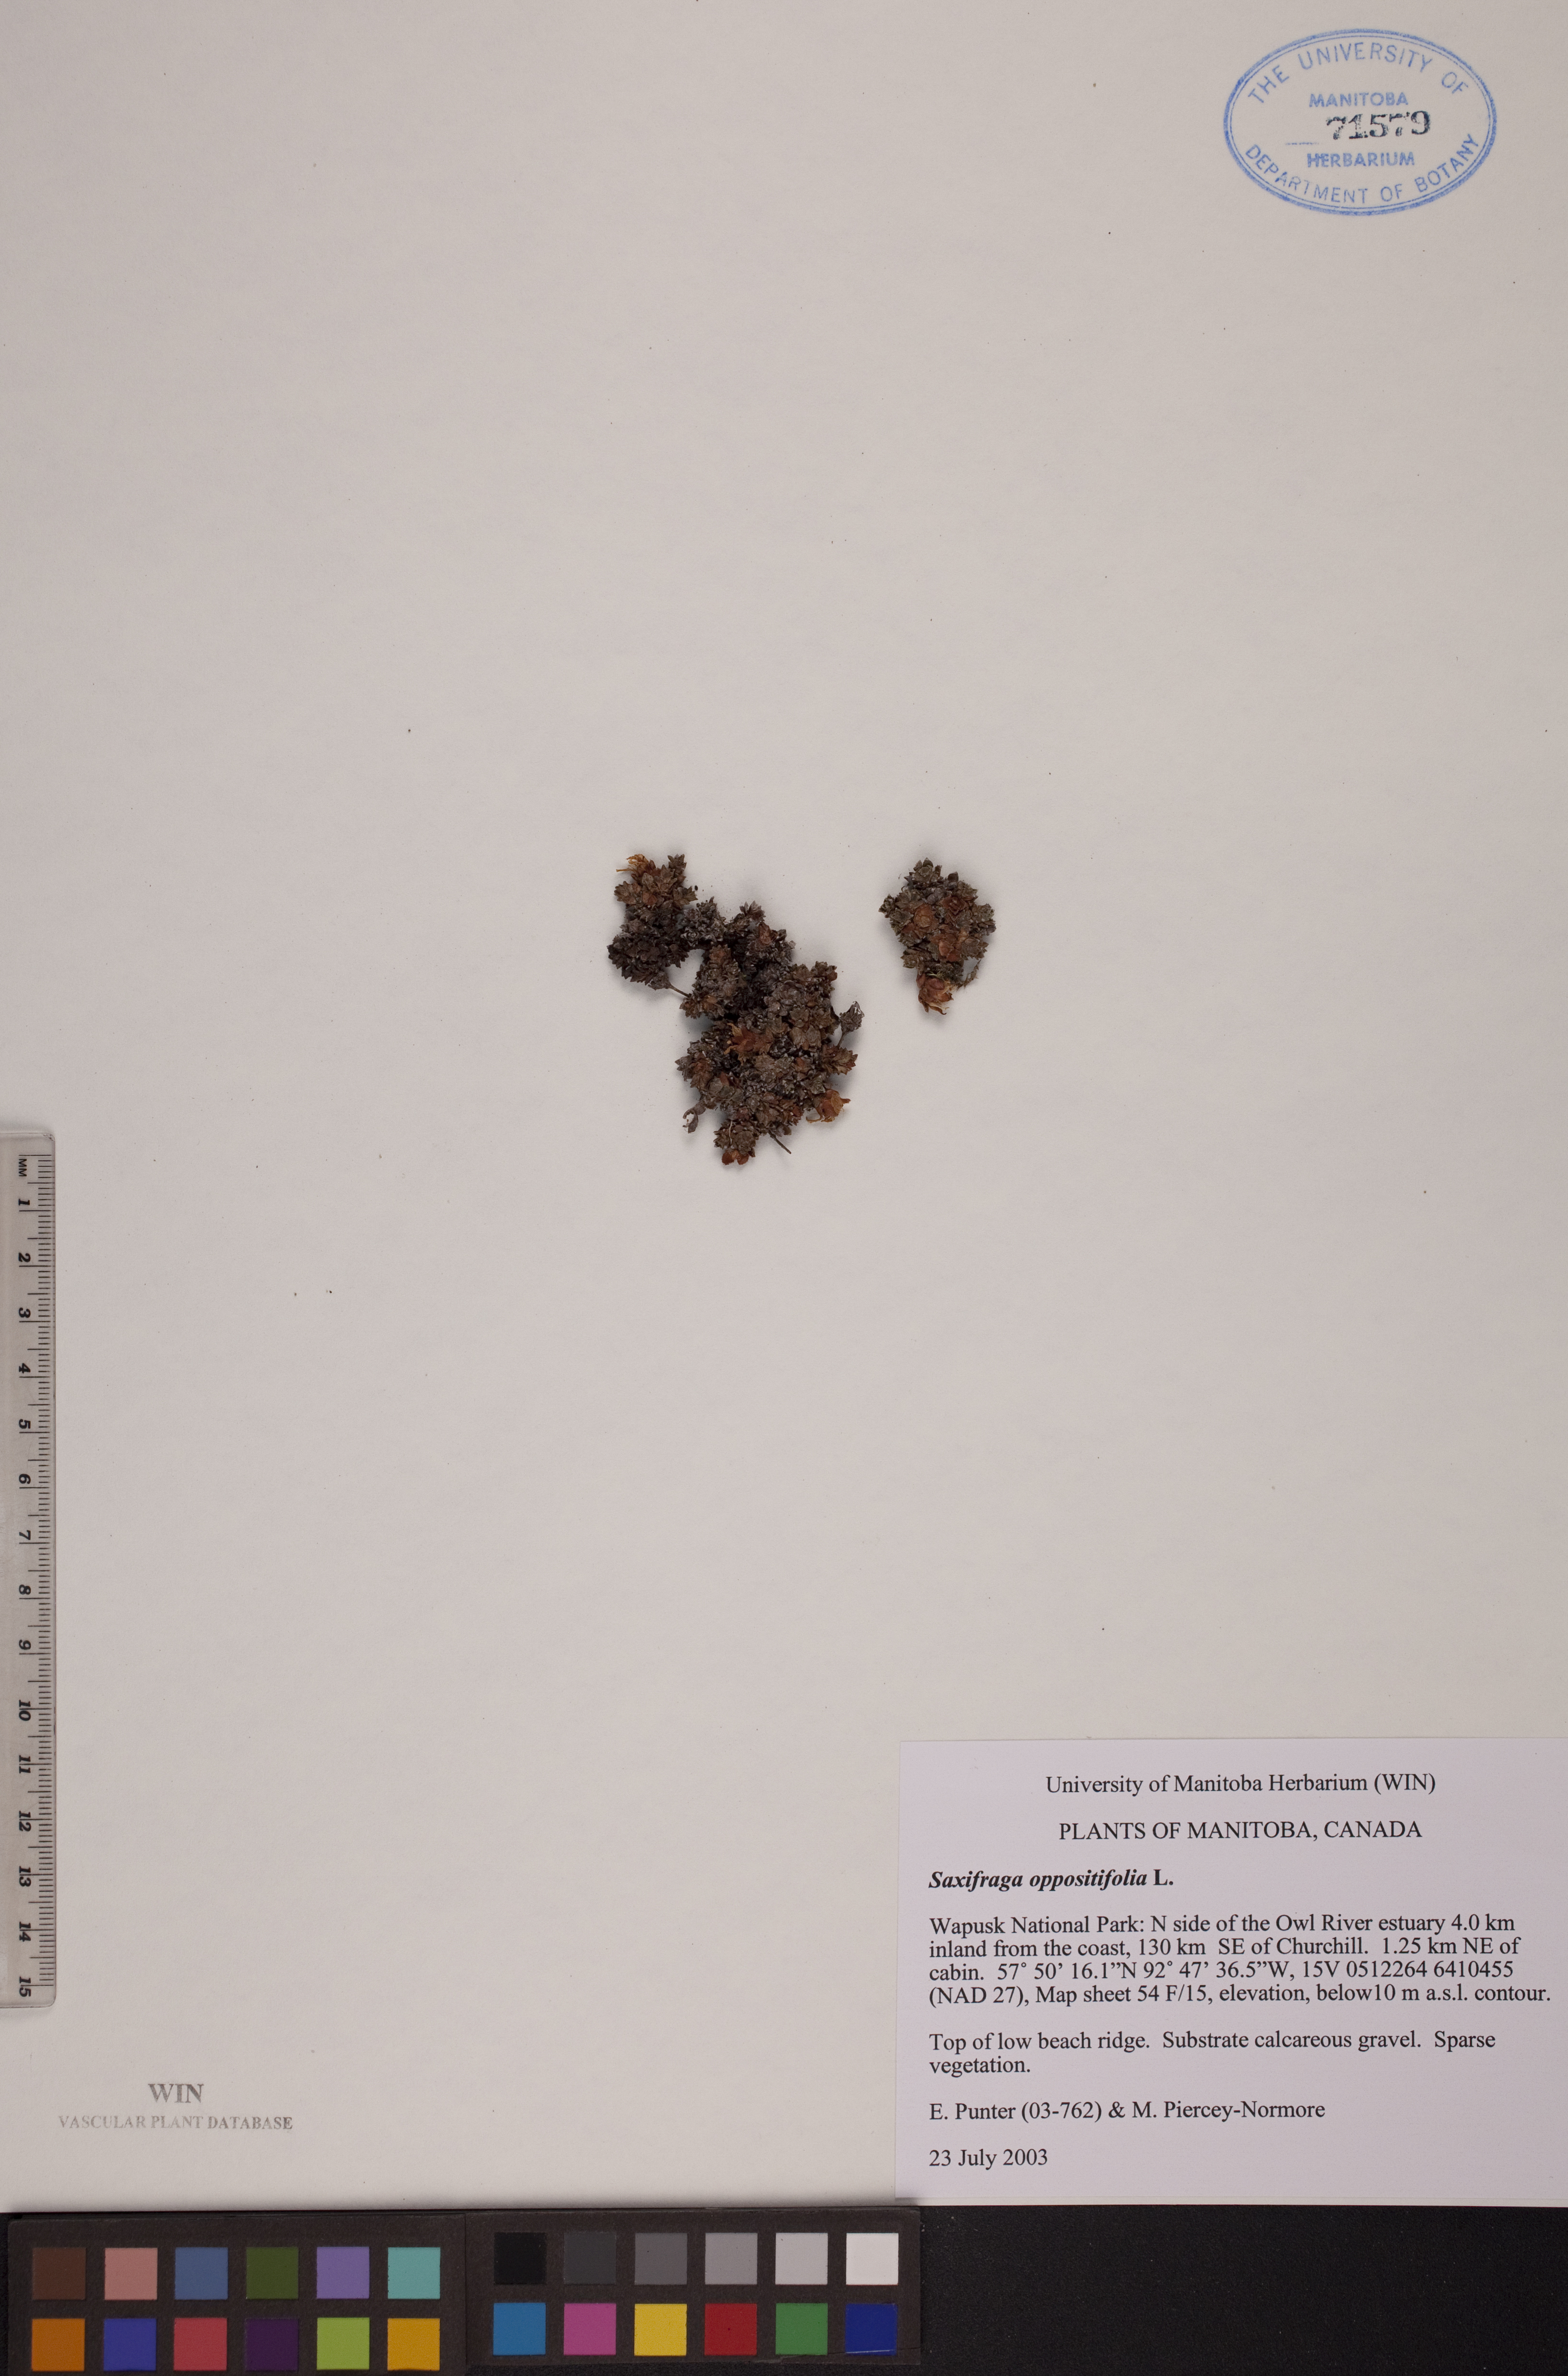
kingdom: Plantae
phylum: Tracheophyta
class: Magnoliopsida
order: Saxifragales
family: Saxifragaceae
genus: Saxifraga
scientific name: Saxifraga oppositifolia
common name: Purple saxifrage
